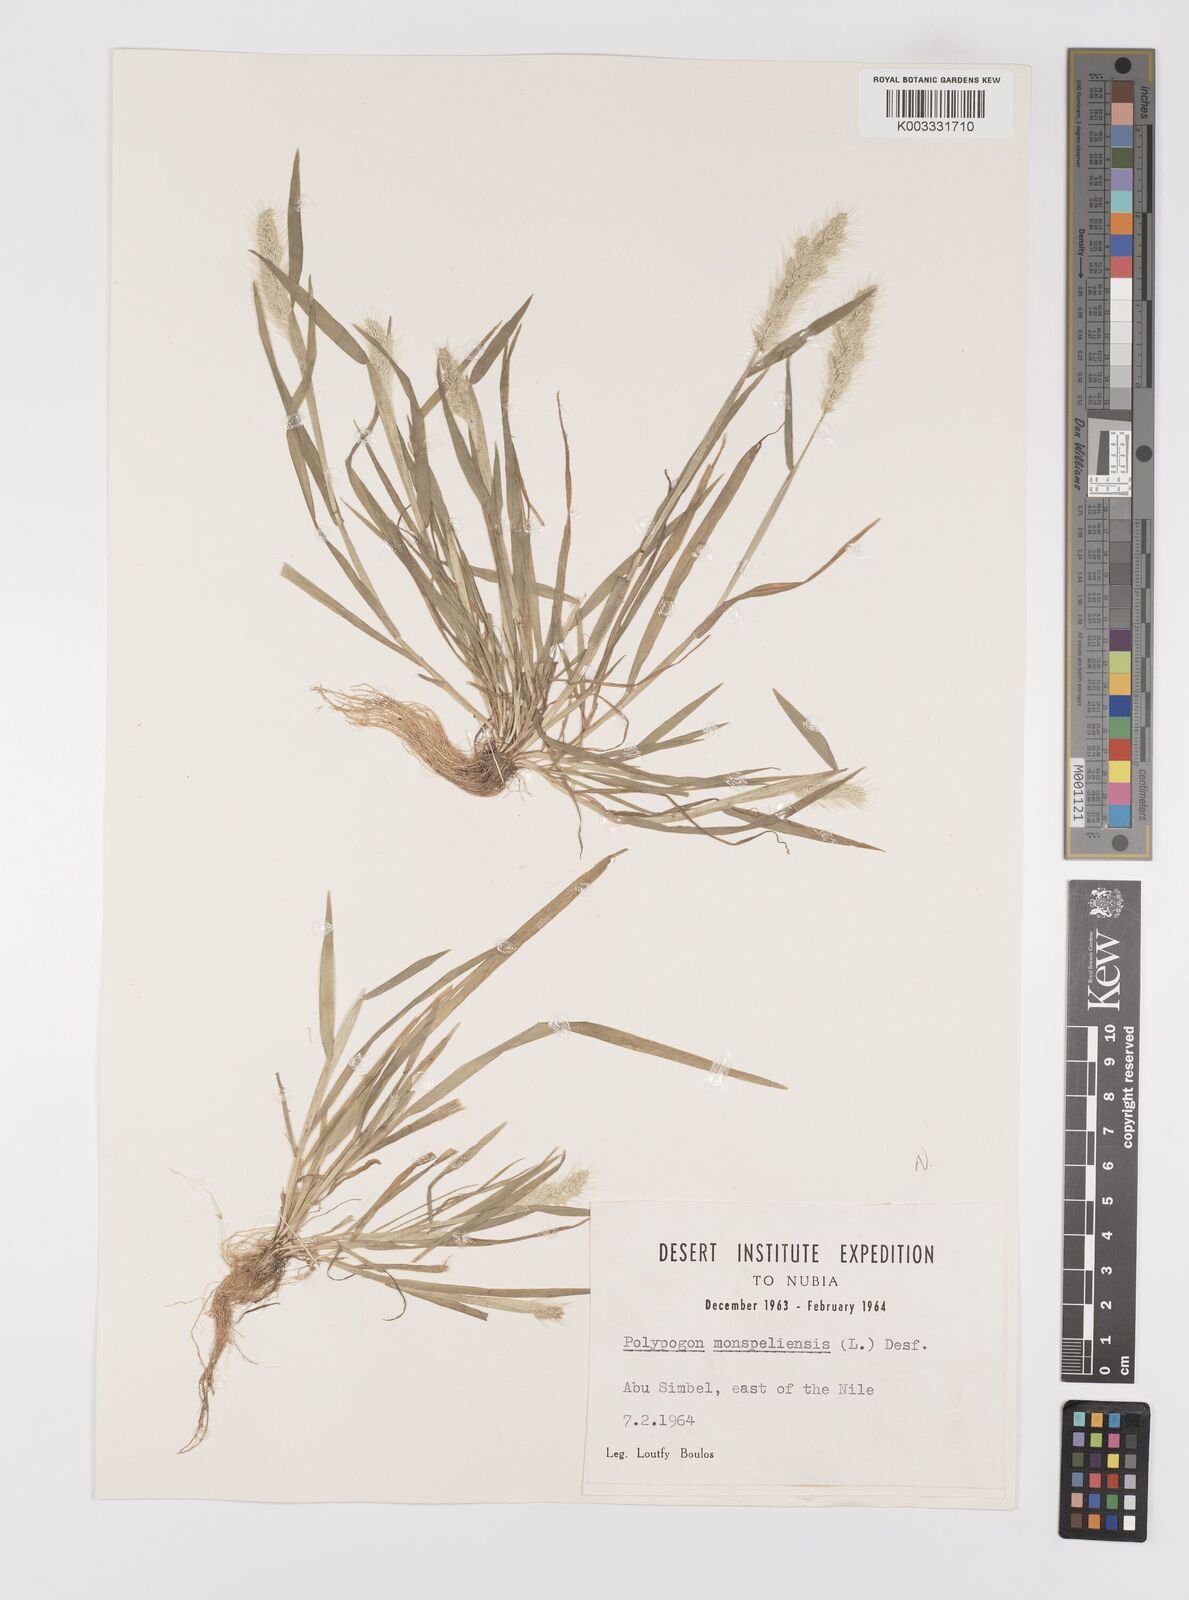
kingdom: Plantae
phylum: Tracheophyta
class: Liliopsida
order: Poales
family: Poaceae
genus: Polypogon
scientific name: Polypogon monspeliensis
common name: Annual rabbitsfoot grass
